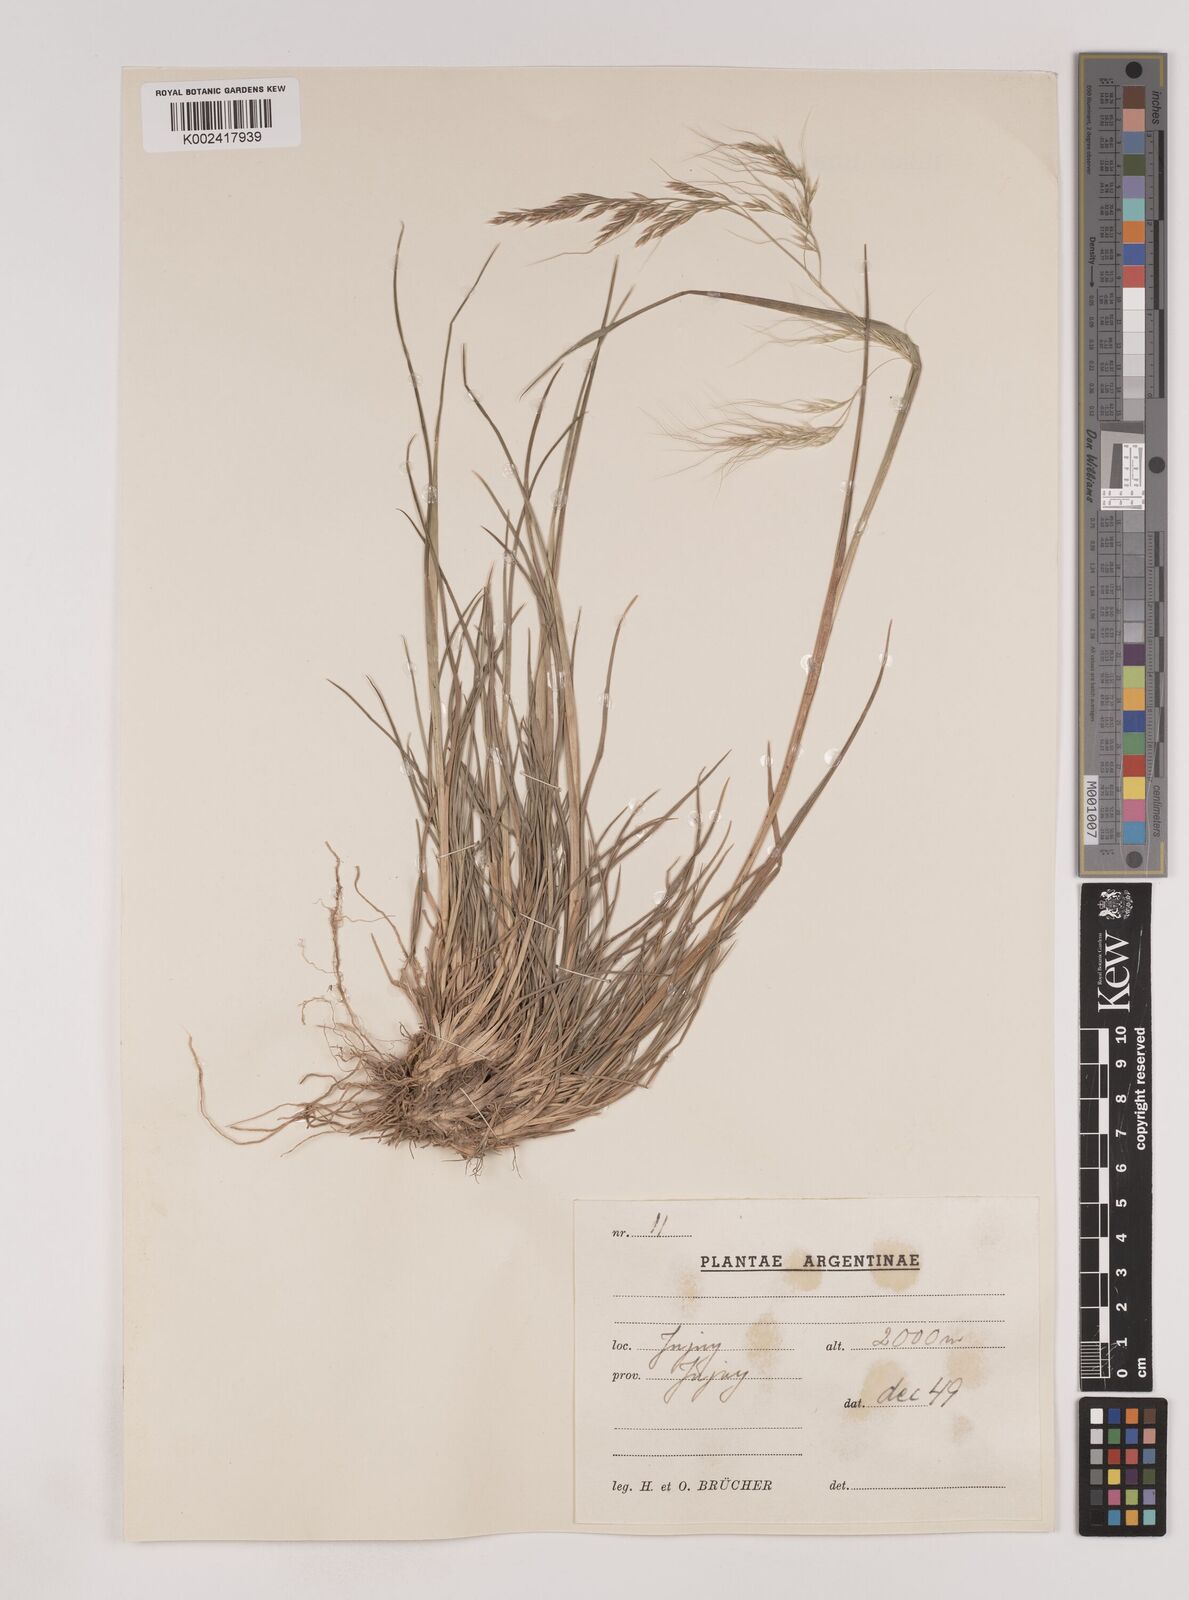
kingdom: Plantae
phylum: Tracheophyta
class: Liliopsida
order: Poales
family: Poaceae
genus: Nassella
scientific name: Nassella philippii
